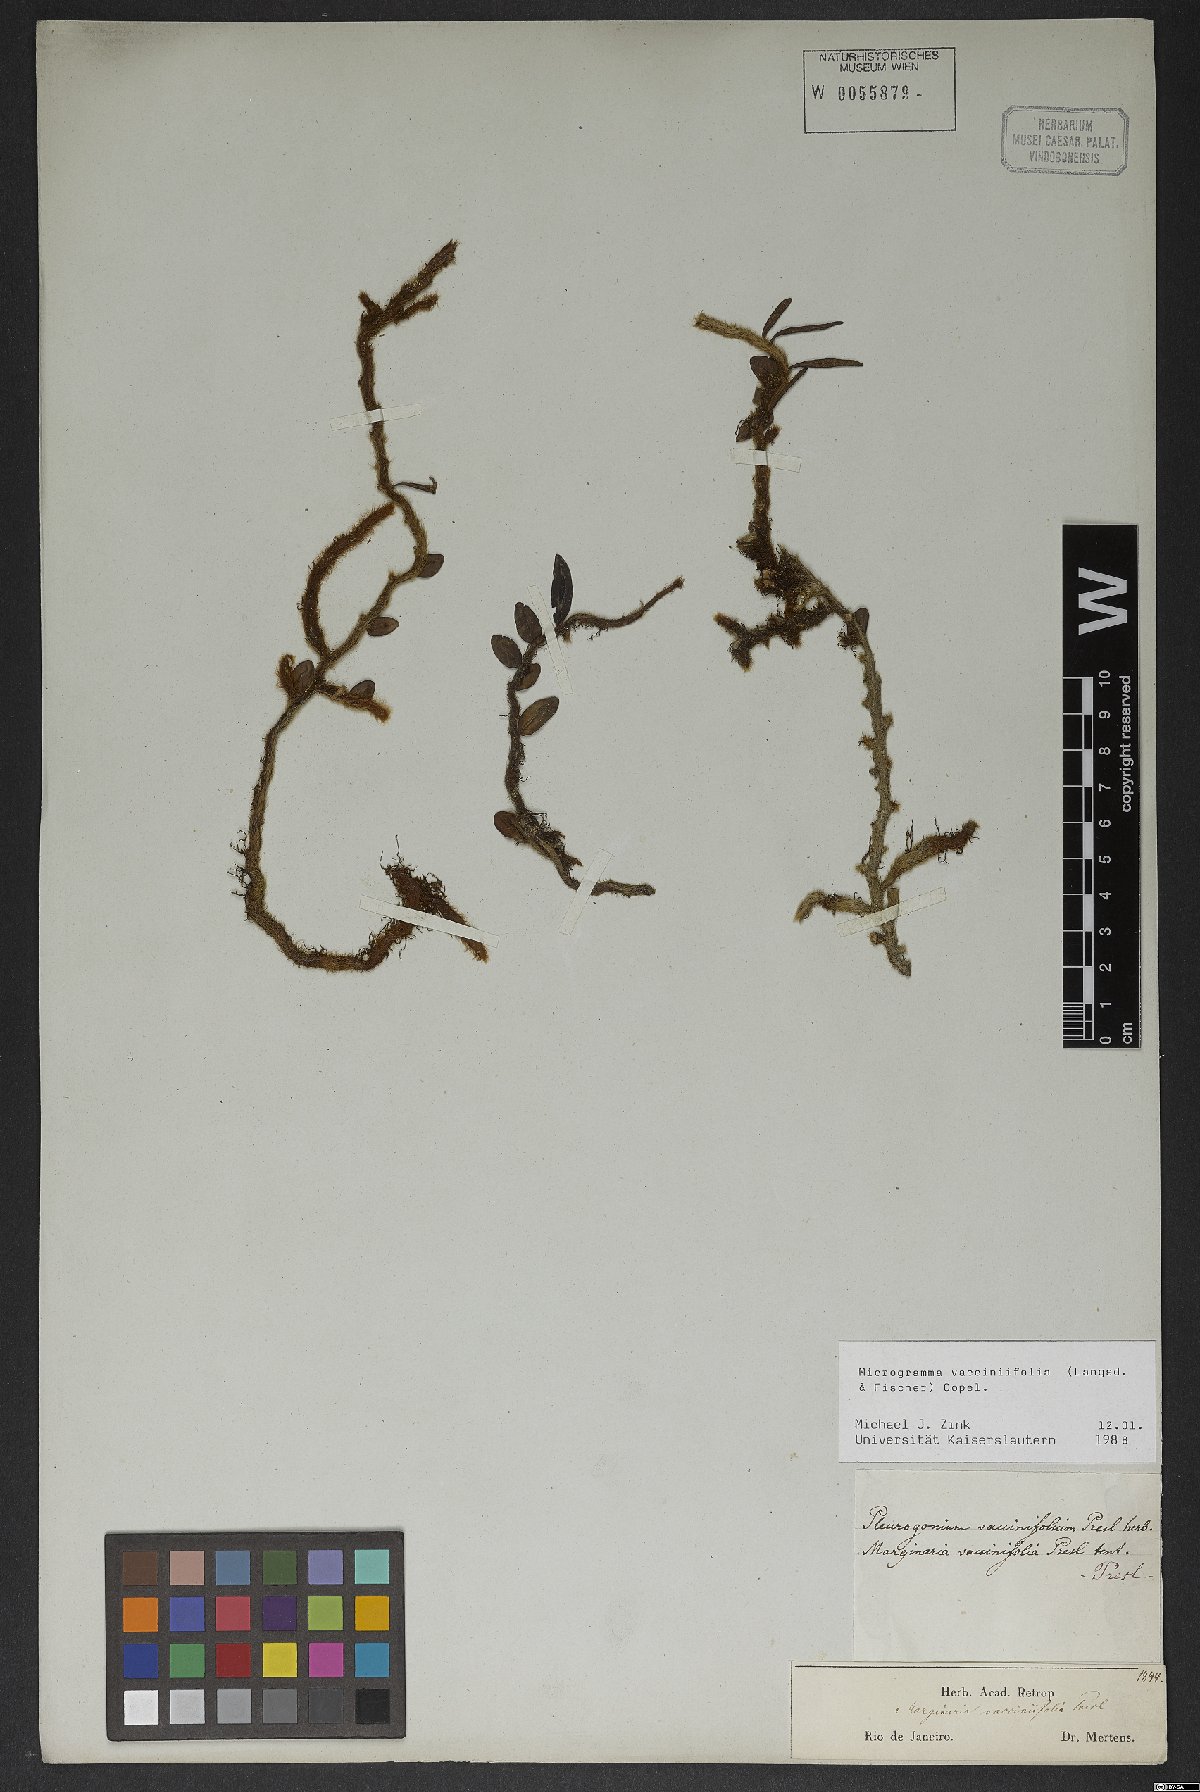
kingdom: Plantae
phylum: Tracheophyta
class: Polypodiopsida
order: Polypodiales
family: Polypodiaceae
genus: Microgramma
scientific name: Microgramma vaccinifolia
